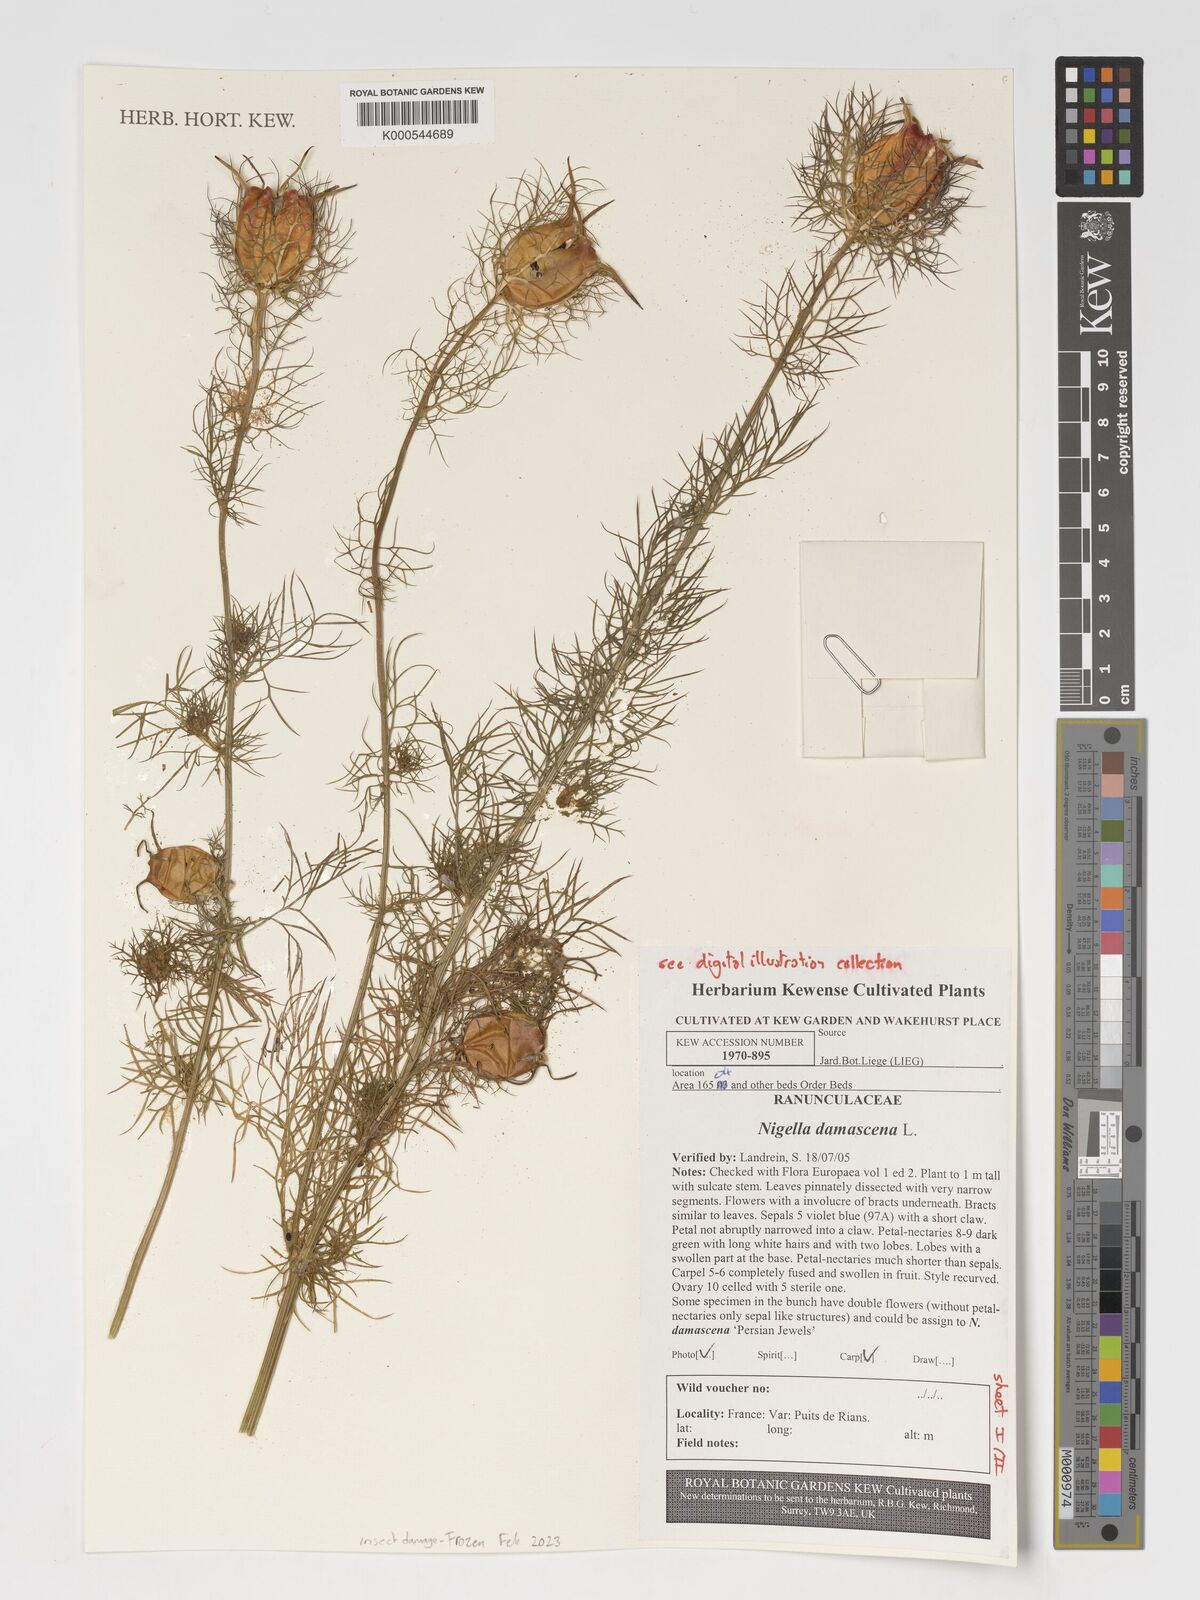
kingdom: Plantae
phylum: Tracheophyta
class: Magnoliopsida
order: Ranunculales
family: Ranunculaceae
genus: Nigella
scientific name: Nigella damascena
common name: Love-in-a-mist
